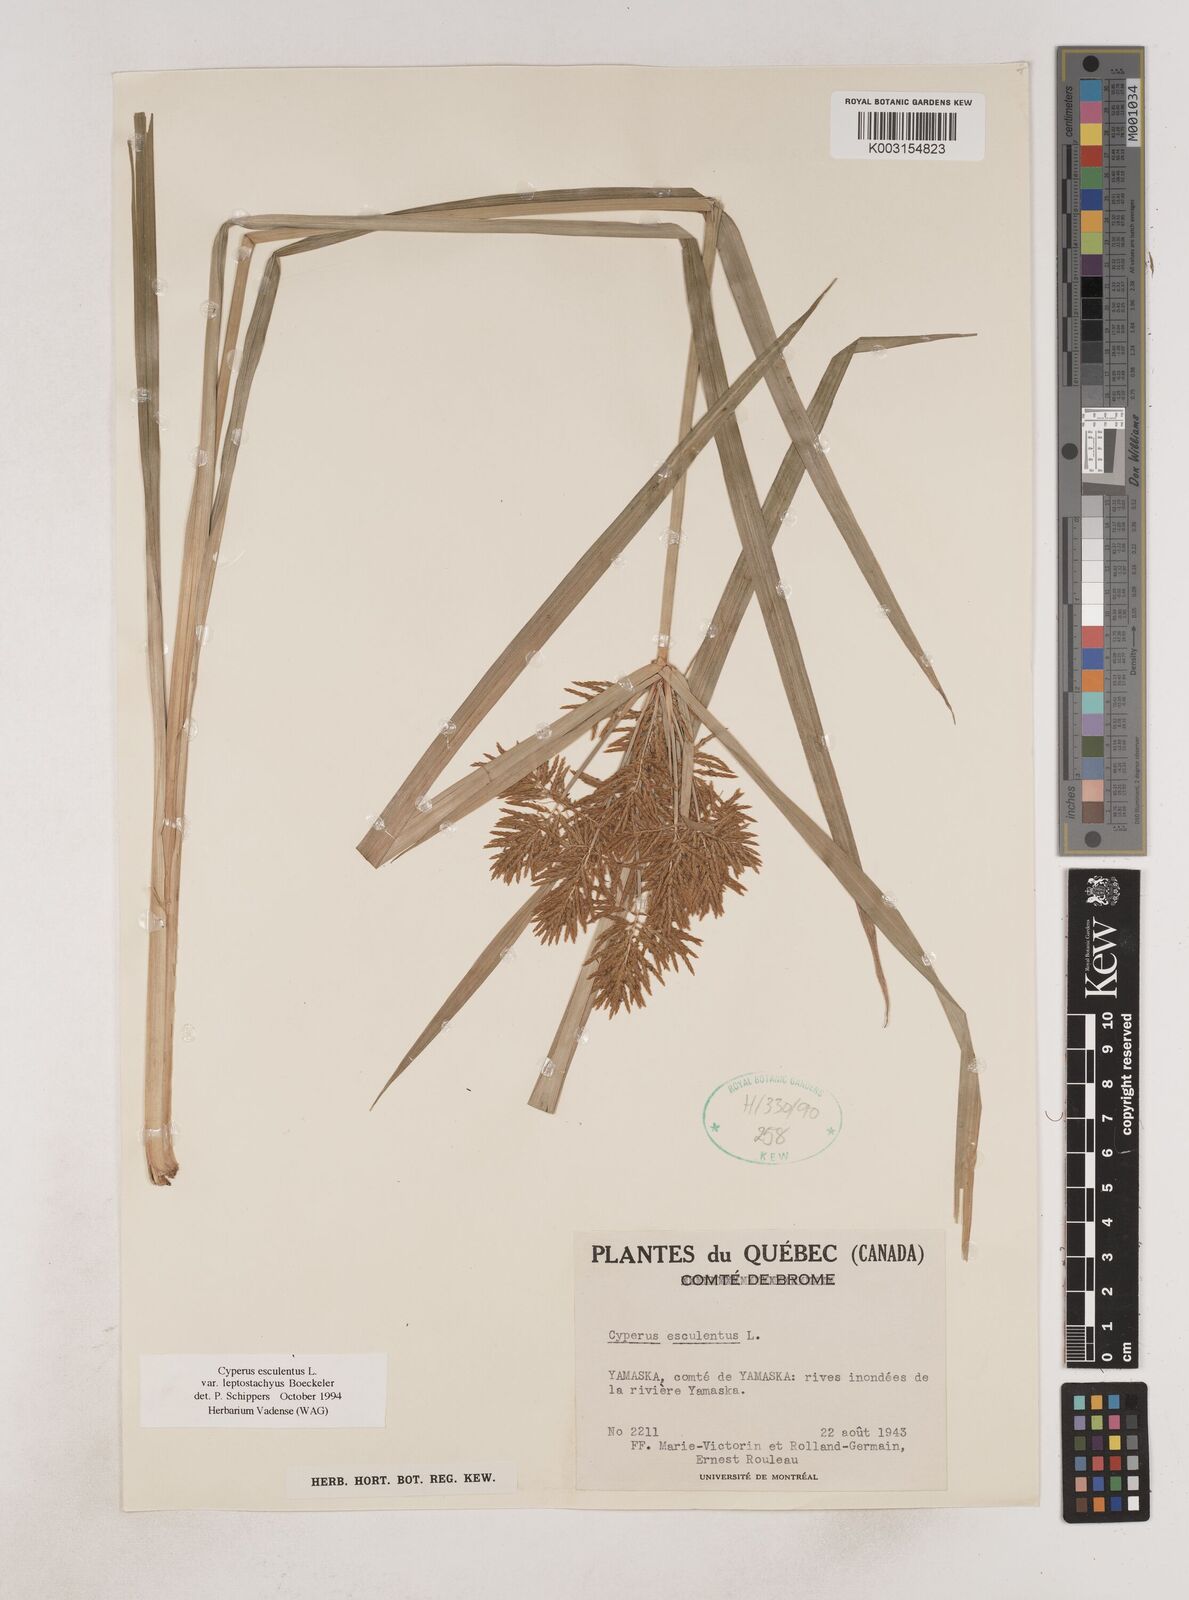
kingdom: Plantae
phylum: Tracheophyta
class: Liliopsida
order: Poales
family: Cyperaceae
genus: Cyperus
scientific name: Cyperus esculentus
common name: Yellow nutsedge
